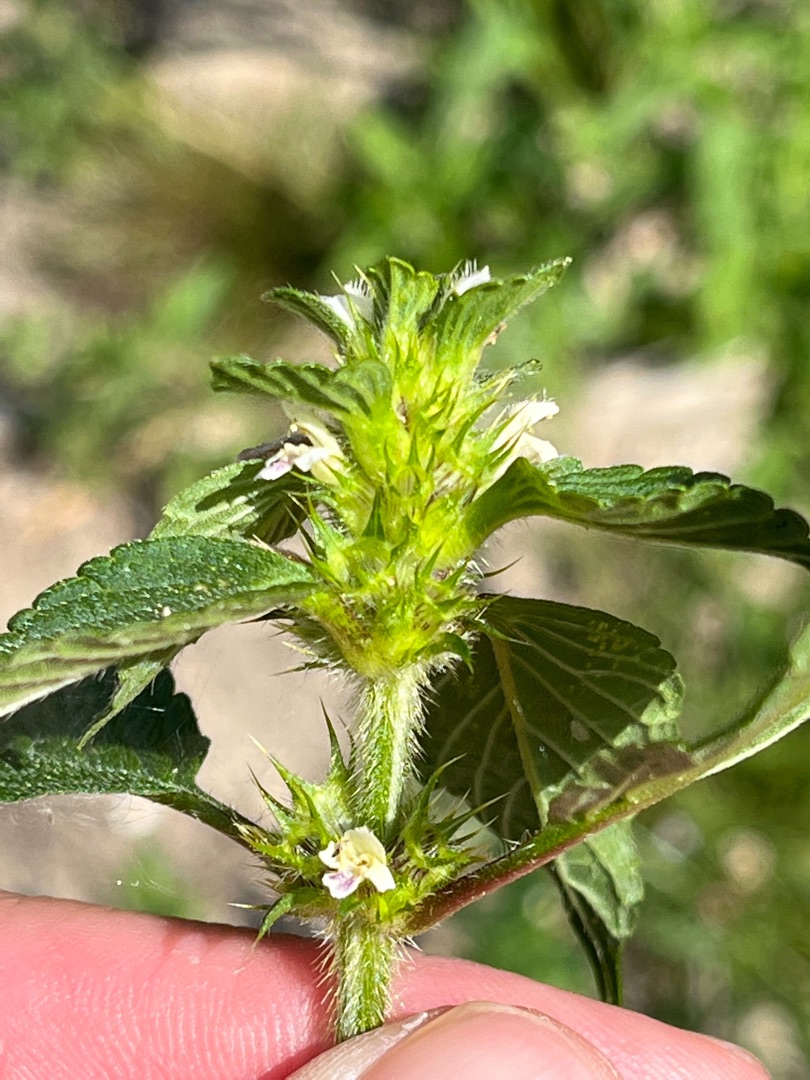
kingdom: Plantae
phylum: Tracheophyta
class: Magnoliopsida
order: Lamiales
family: Lamiaceae
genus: Galeopsis
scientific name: Galeopsis bifida
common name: Skov-hanekro
